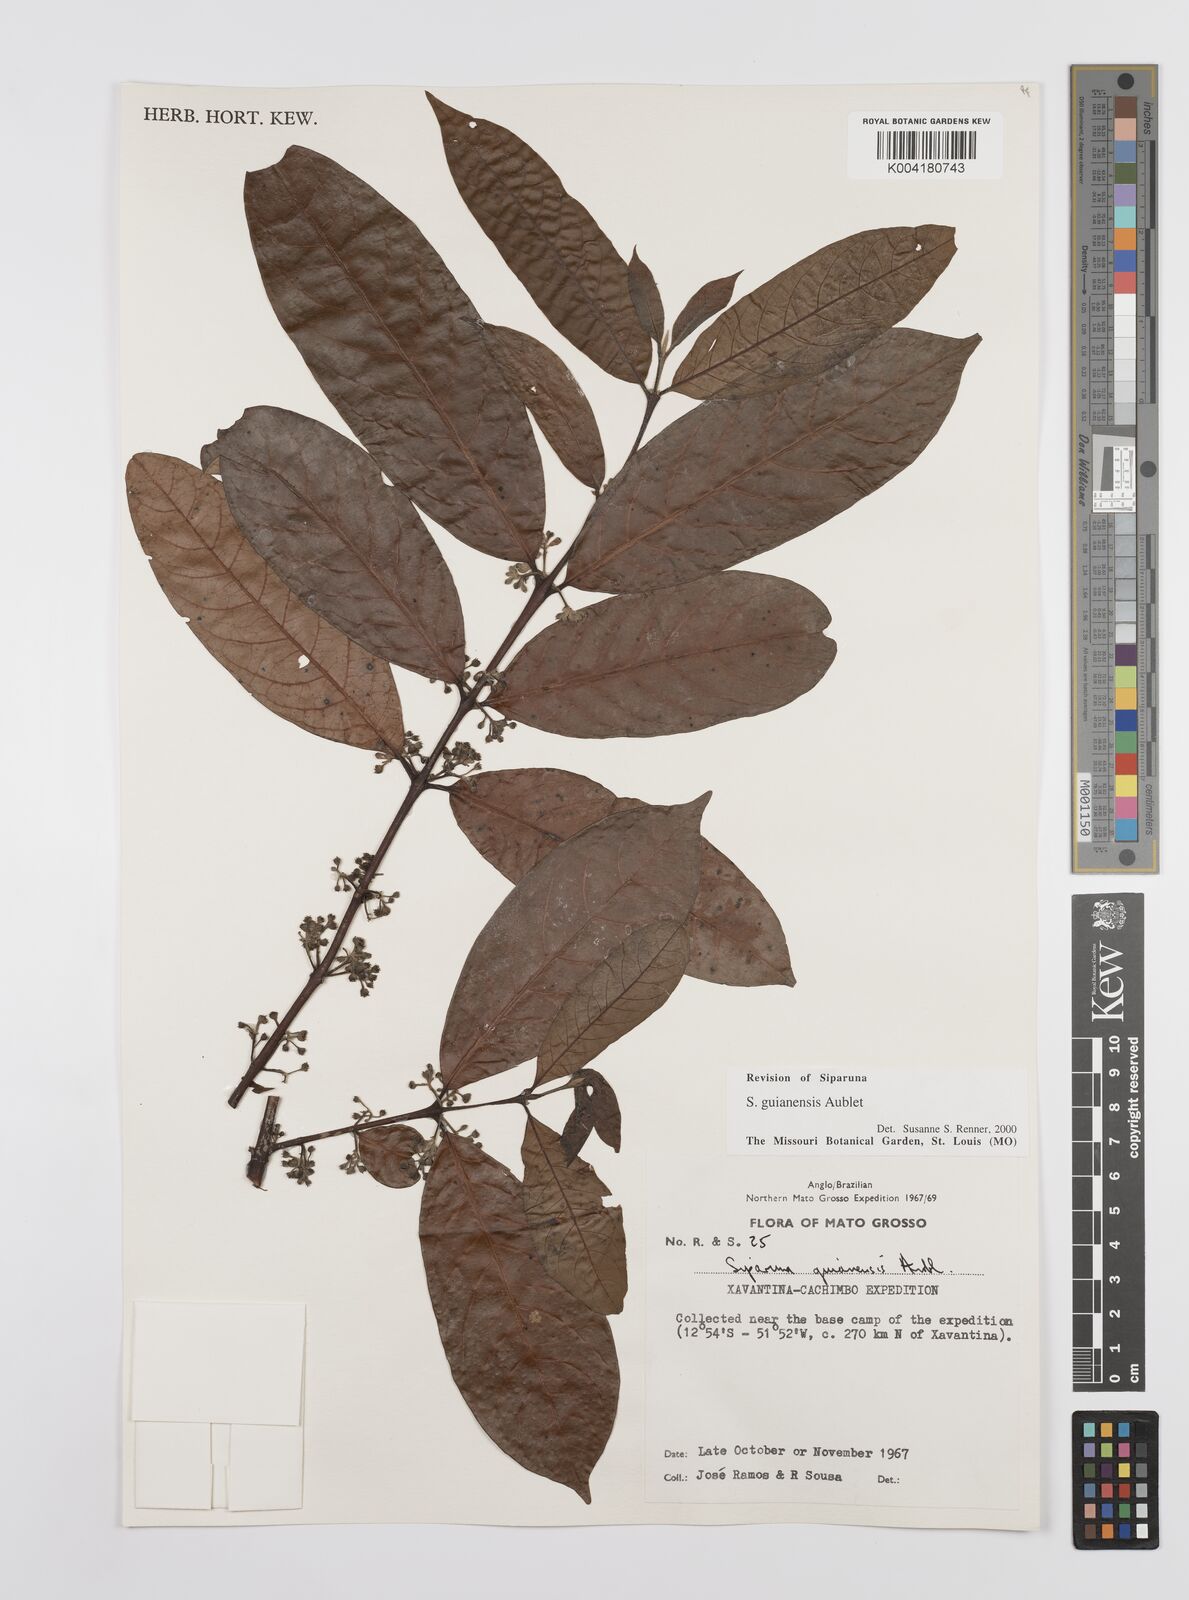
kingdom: Plantae
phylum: Tracheophyta
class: Magnoliopsida
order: Laurales
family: Siparunaceae
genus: Siparuna
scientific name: Siparuna guianensis
